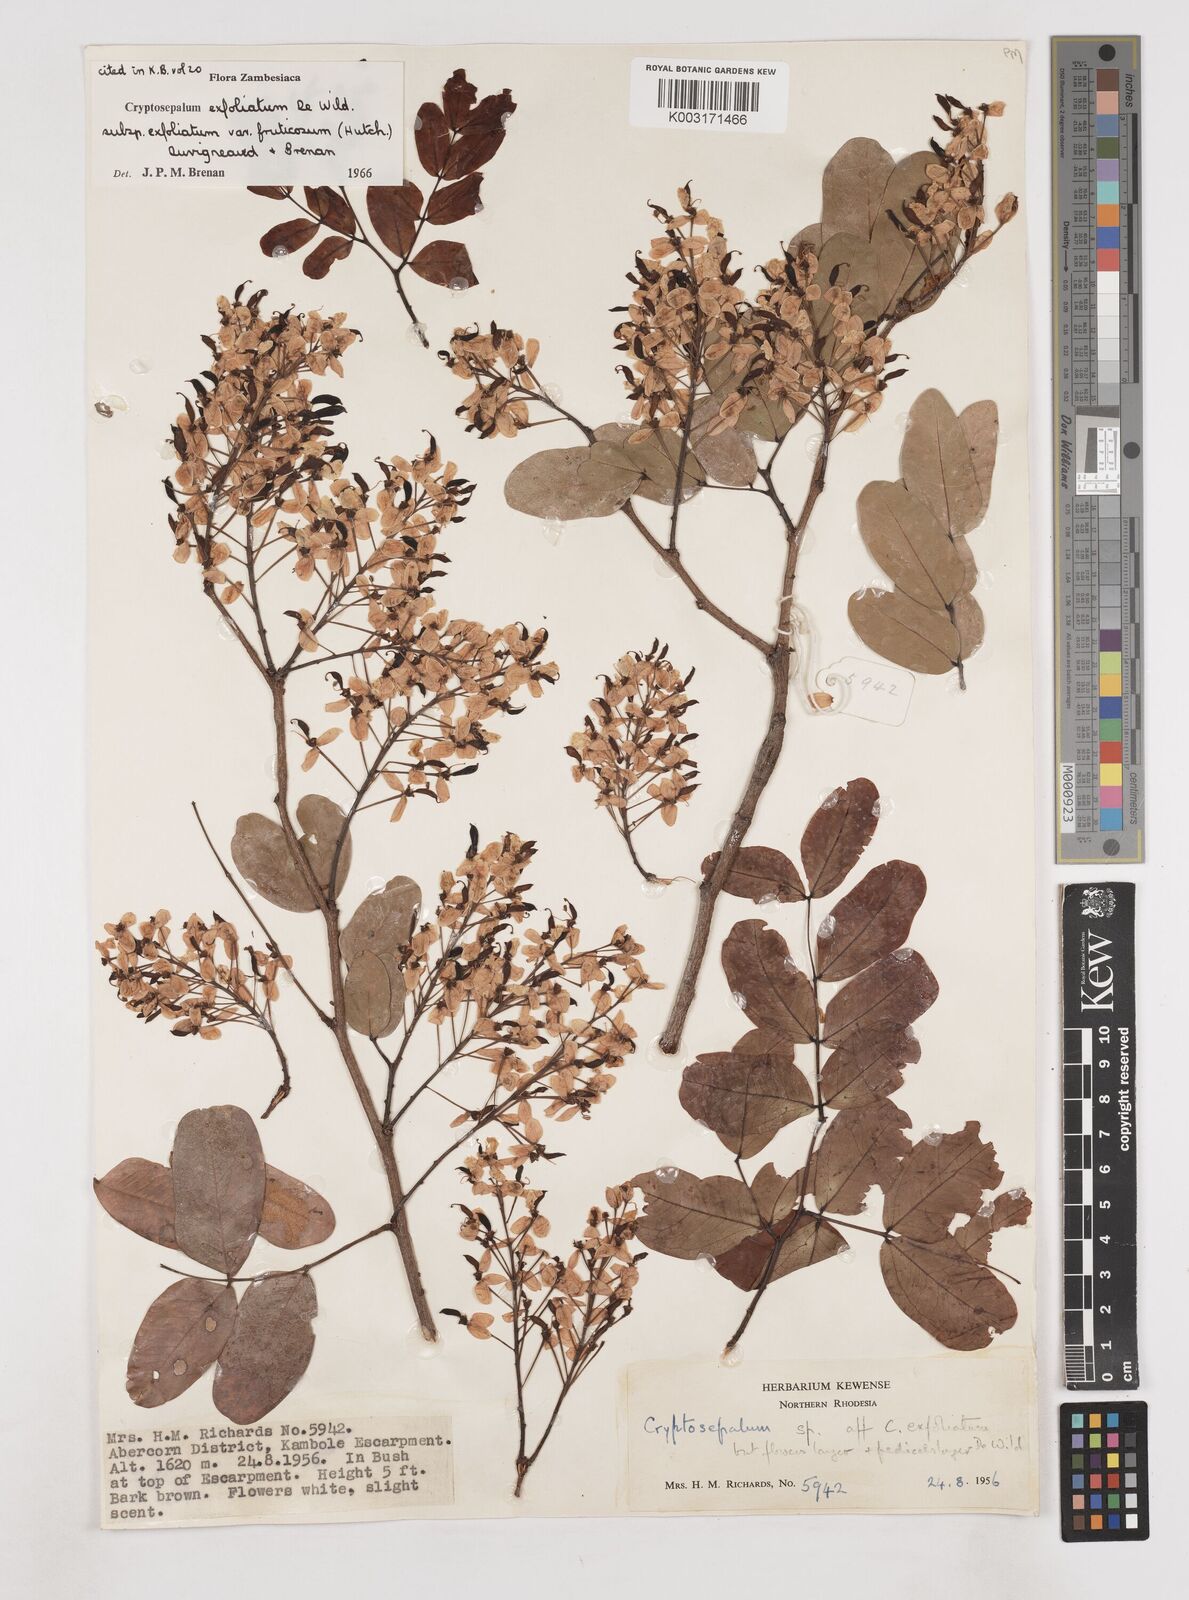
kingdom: Plantae
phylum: Tracheophyta
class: Magnoliopsida
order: Fabales
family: Fabaceae
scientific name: Fabaceae
